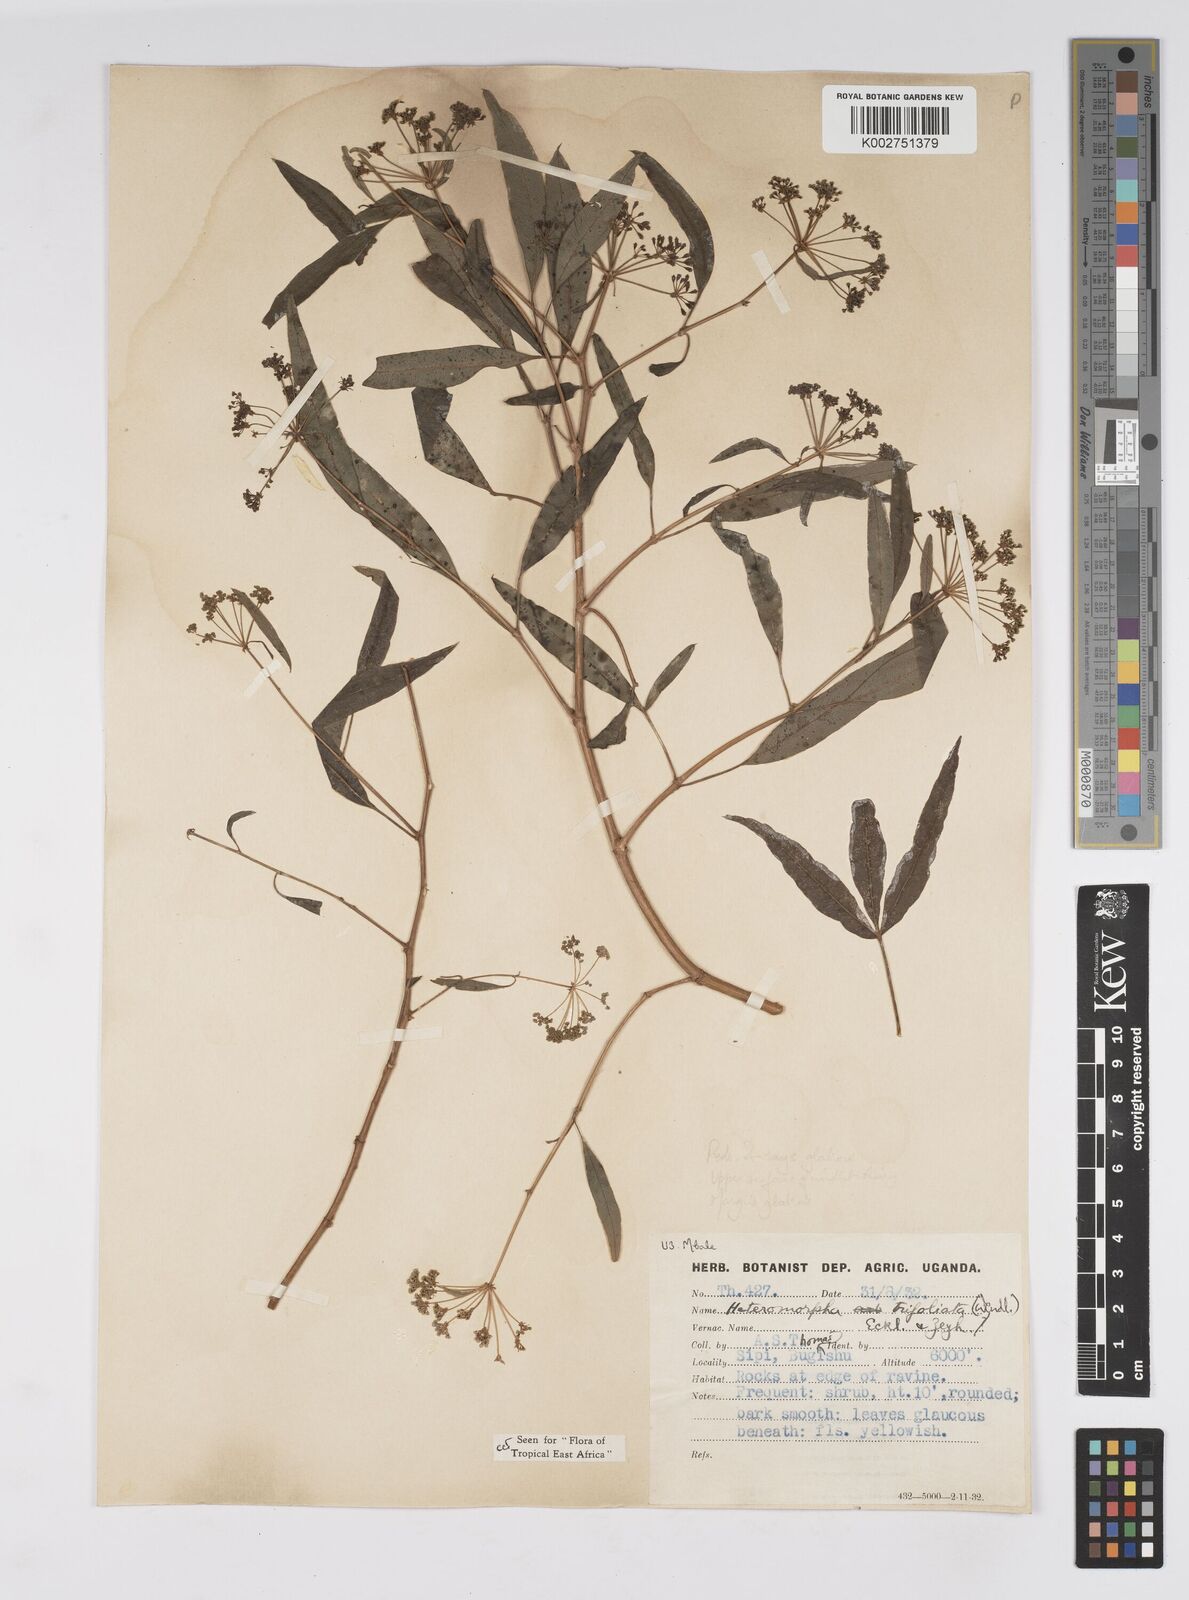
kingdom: Plantae
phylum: Tracheophyta
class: Magnoliopsida
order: Apiales
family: Apiaceae
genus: Heteromorpha
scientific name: Heteromorpha arborescens
